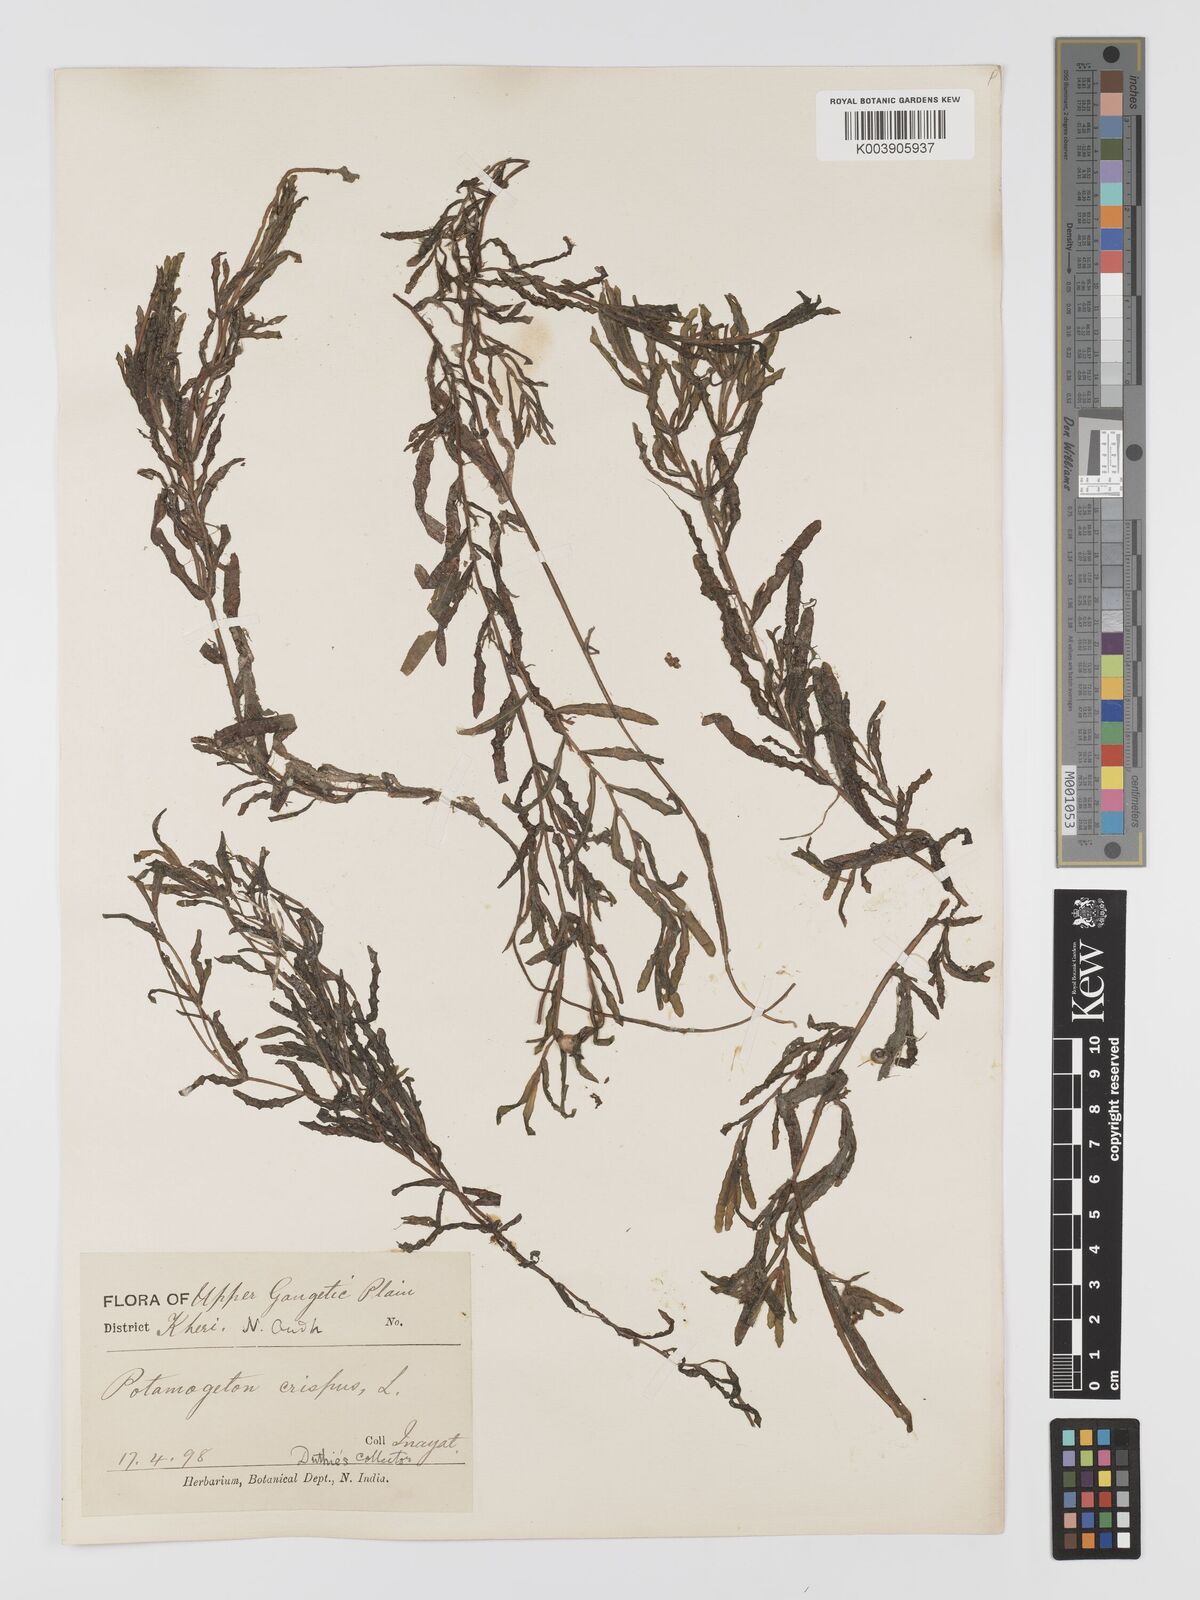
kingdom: Plantae
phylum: Tracheophyta
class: Liliopsida
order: Alismatales
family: Potamogetonaceae
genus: Potamogeton
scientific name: Potamogeton crispus
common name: Curled pondweed
